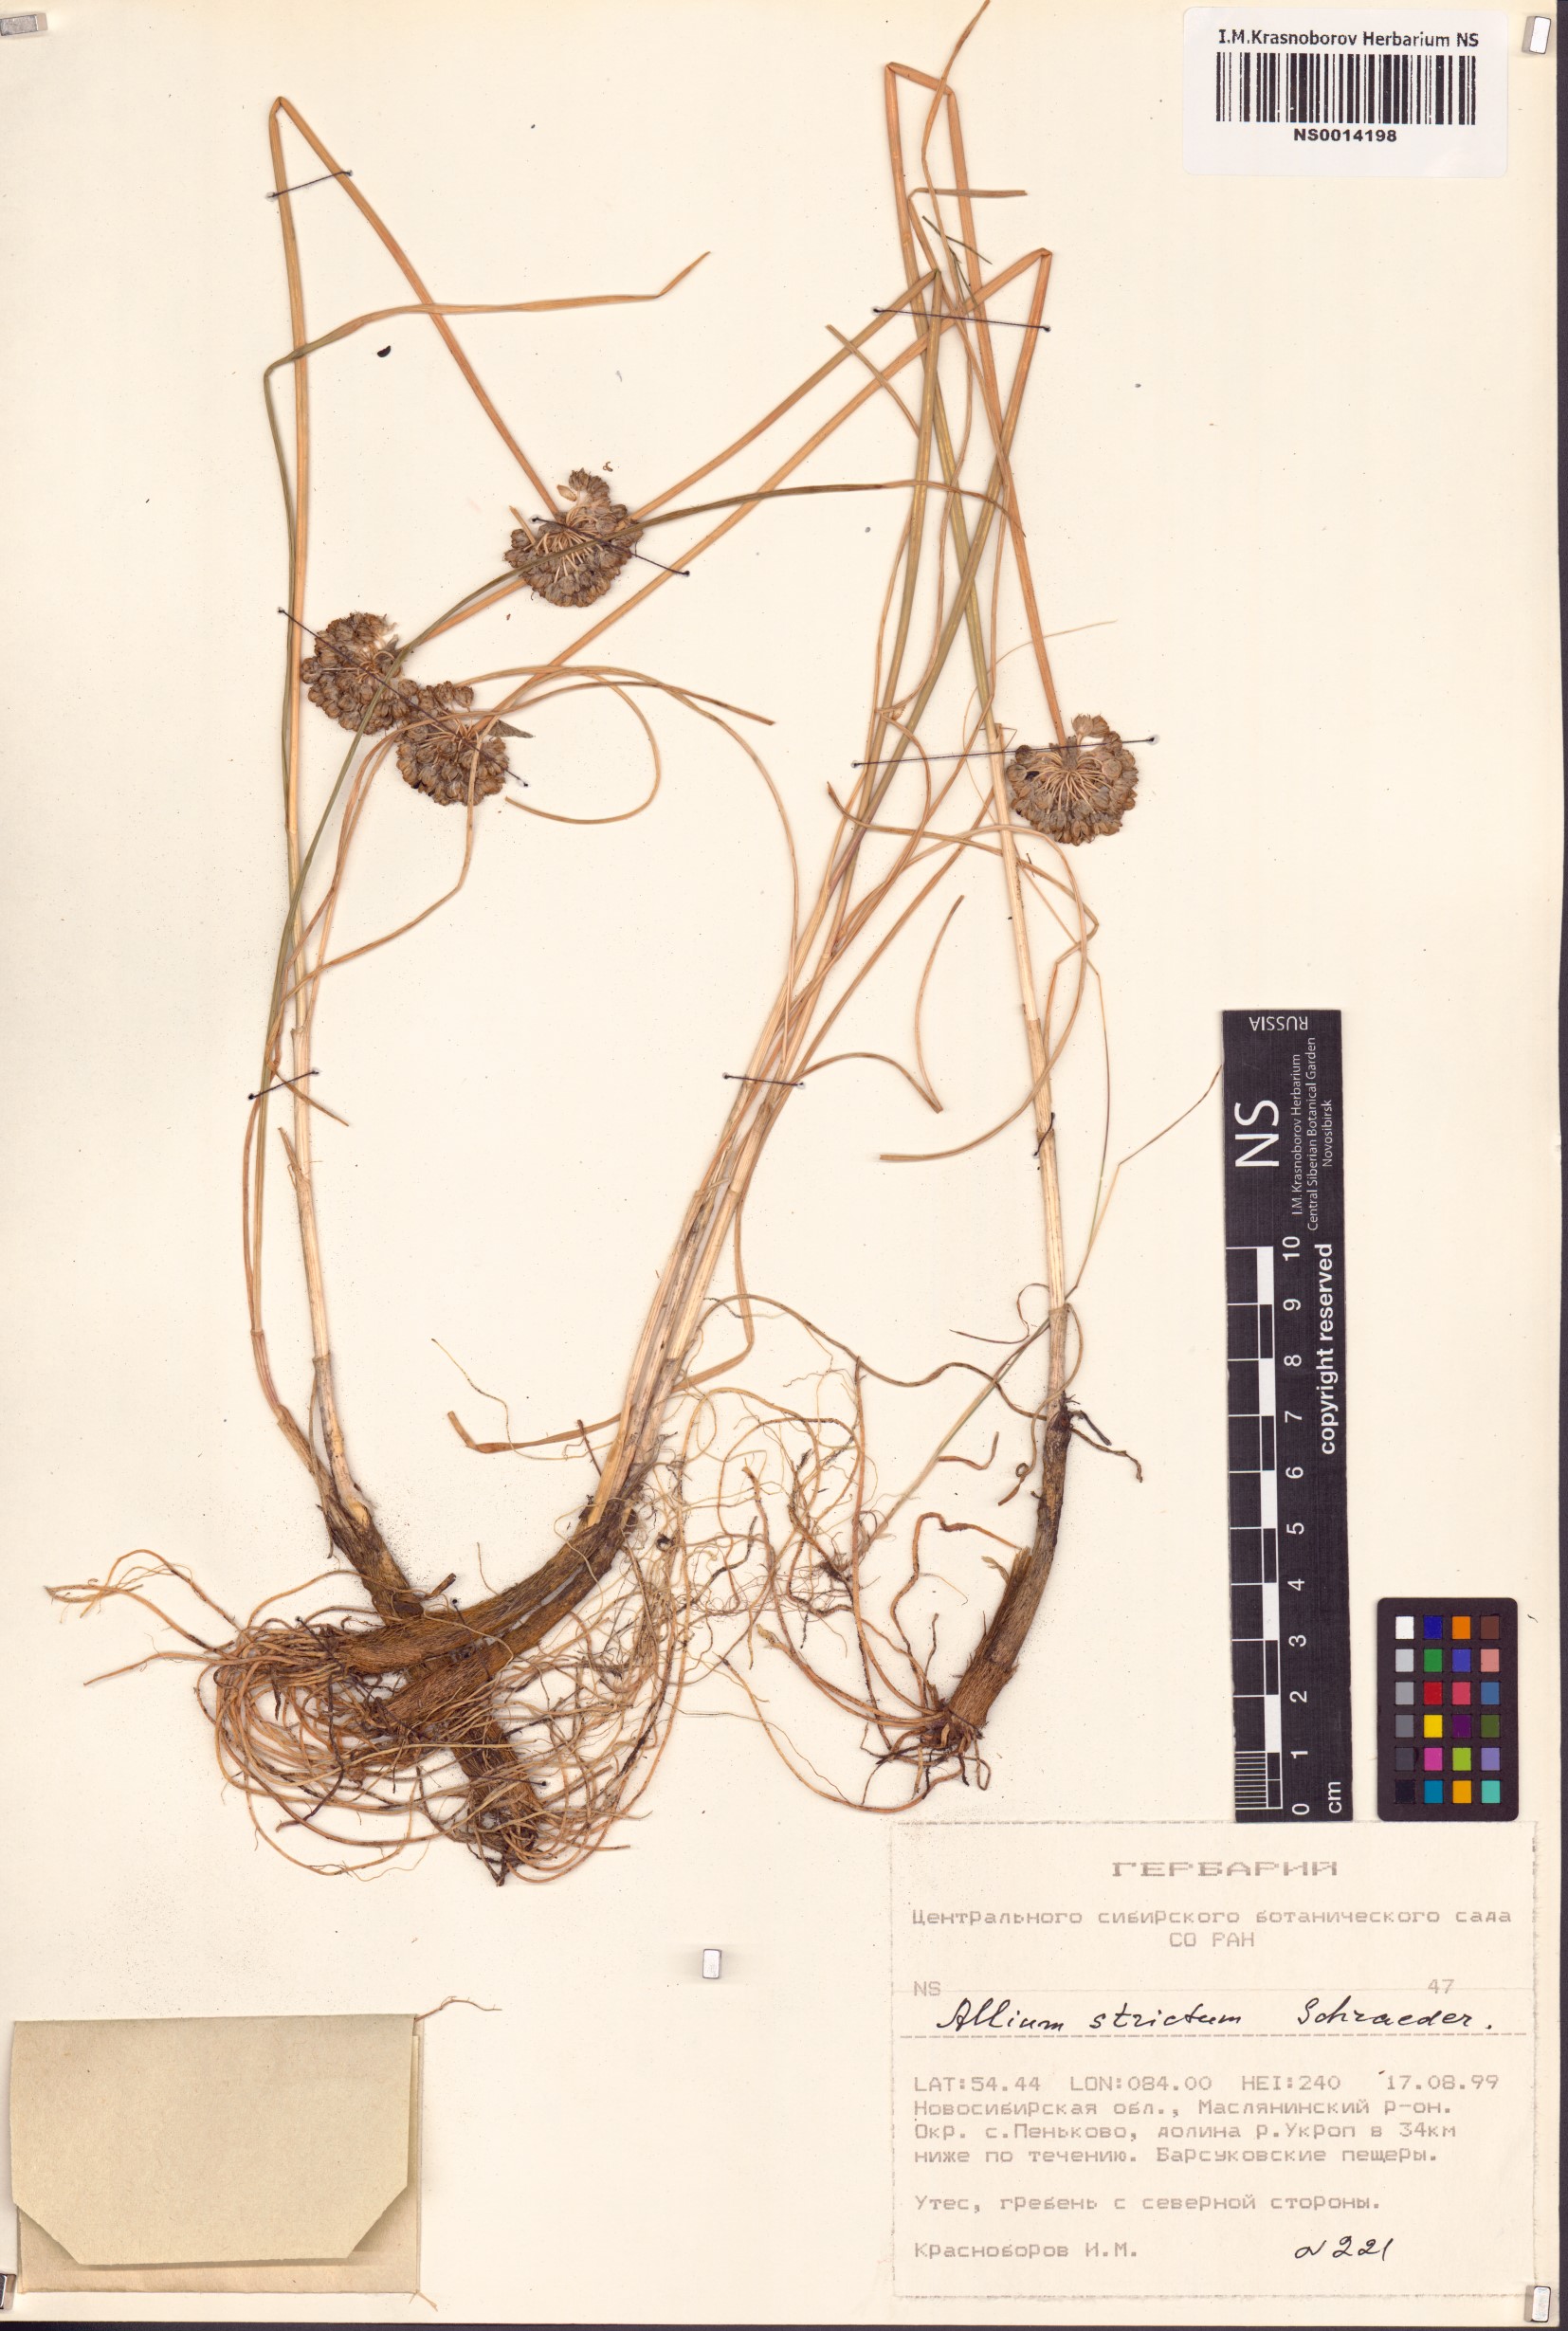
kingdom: Plantae
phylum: Tracheophyta
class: Liliopsida
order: Asparagales
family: Amaryllidaceae
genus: Allium
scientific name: Allium strictum
